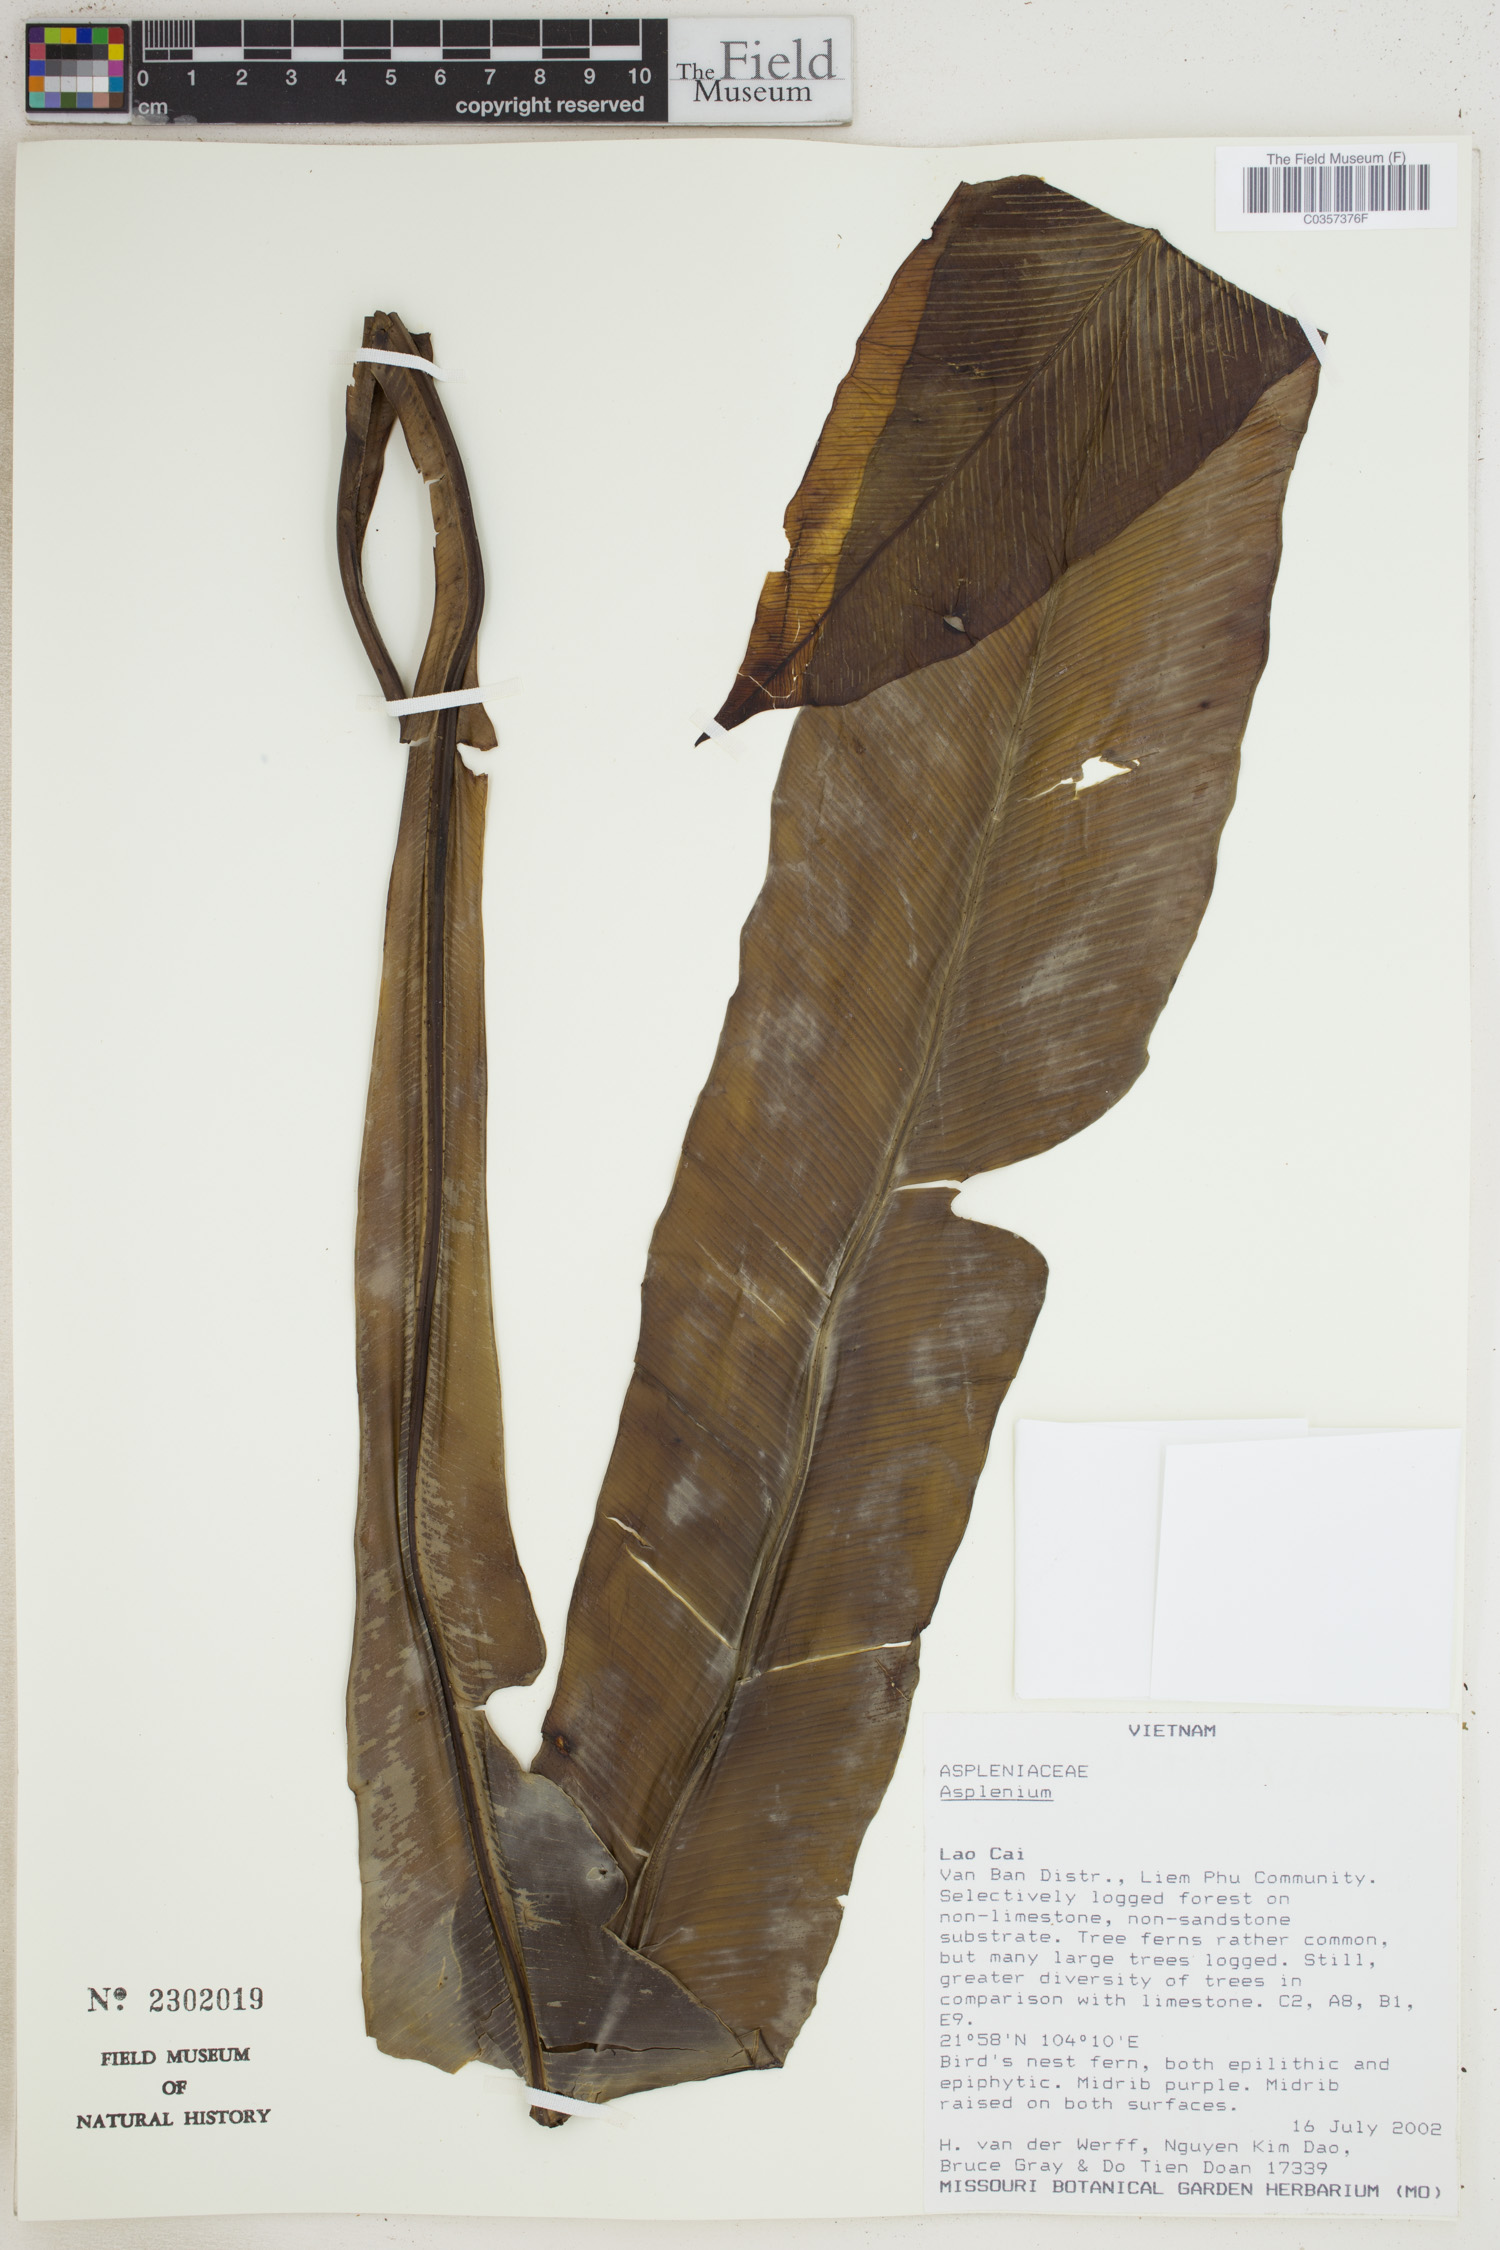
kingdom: Plantae
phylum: Tracheophyta
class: Polypodiopsida
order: Polypodiales
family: Aspleniaceae
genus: Asplenium
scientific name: Asplenium
